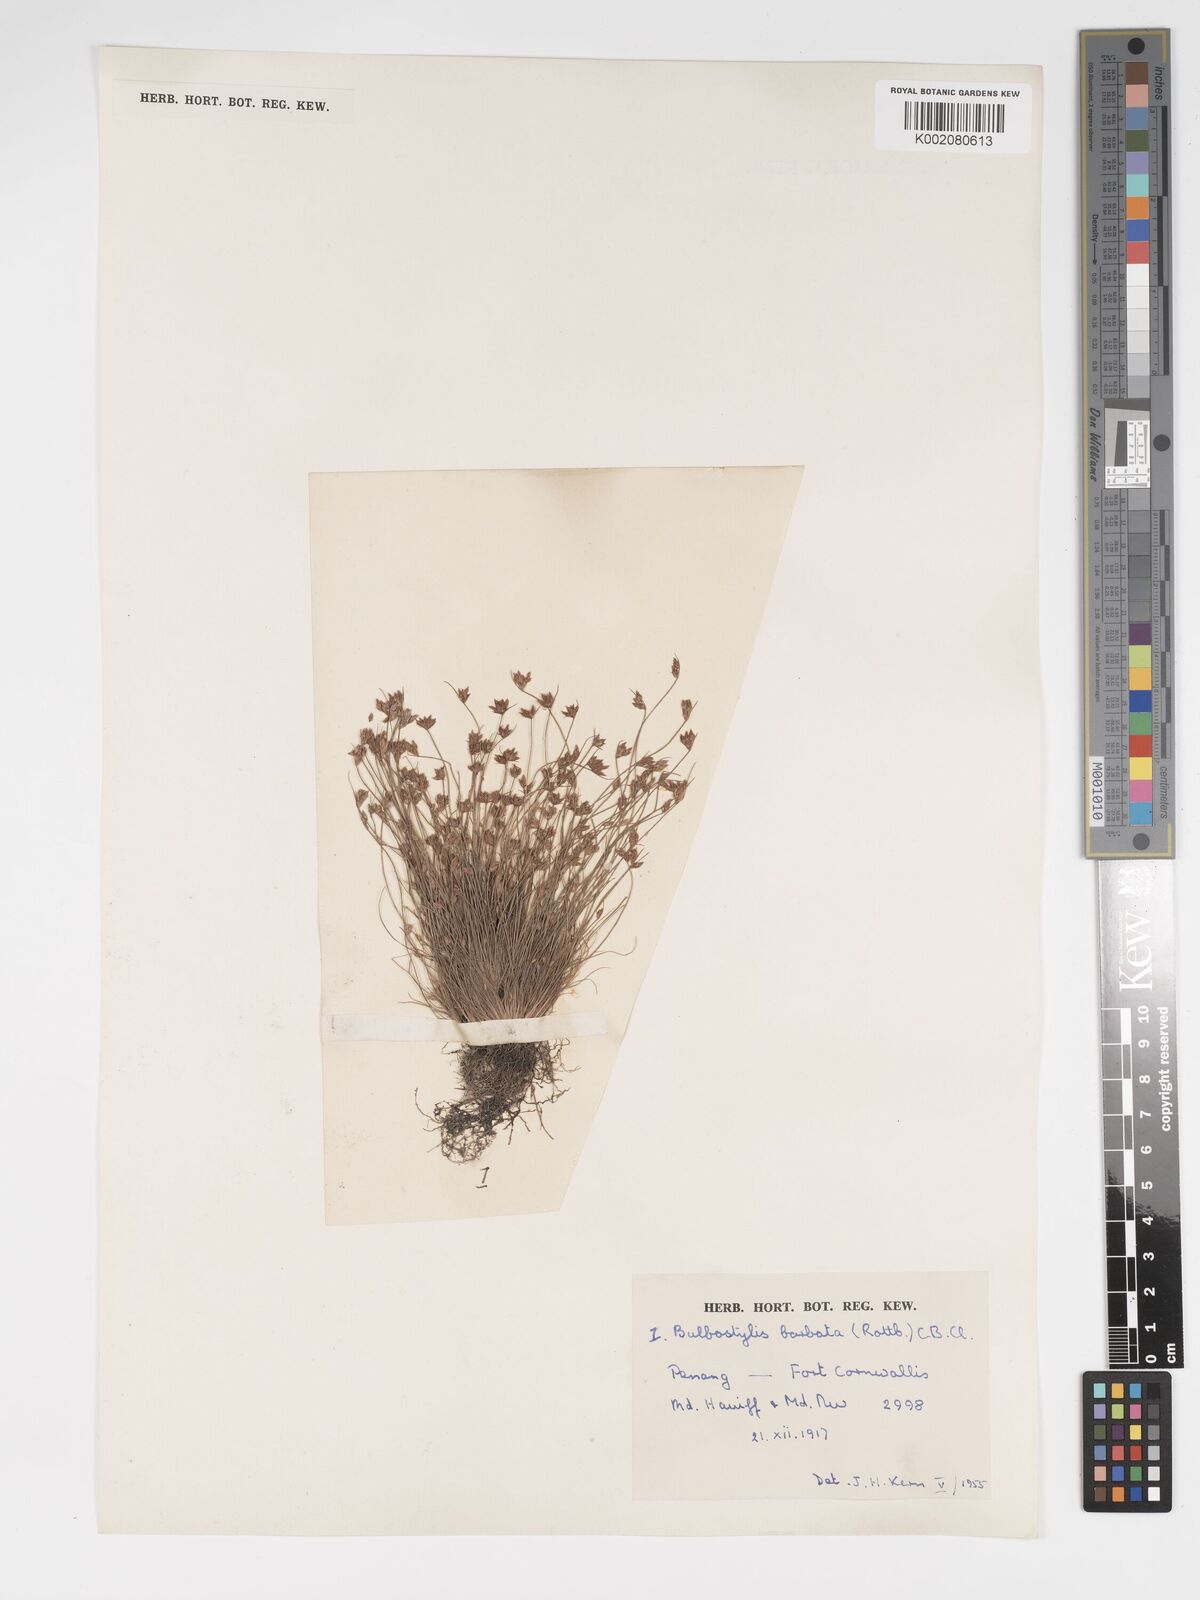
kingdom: Plantae
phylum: Tracheophyta
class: Liliopsida
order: Poales
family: Cyperaceae
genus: Bulbostylis
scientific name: Bulbostylis barbata
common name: Watergrass
